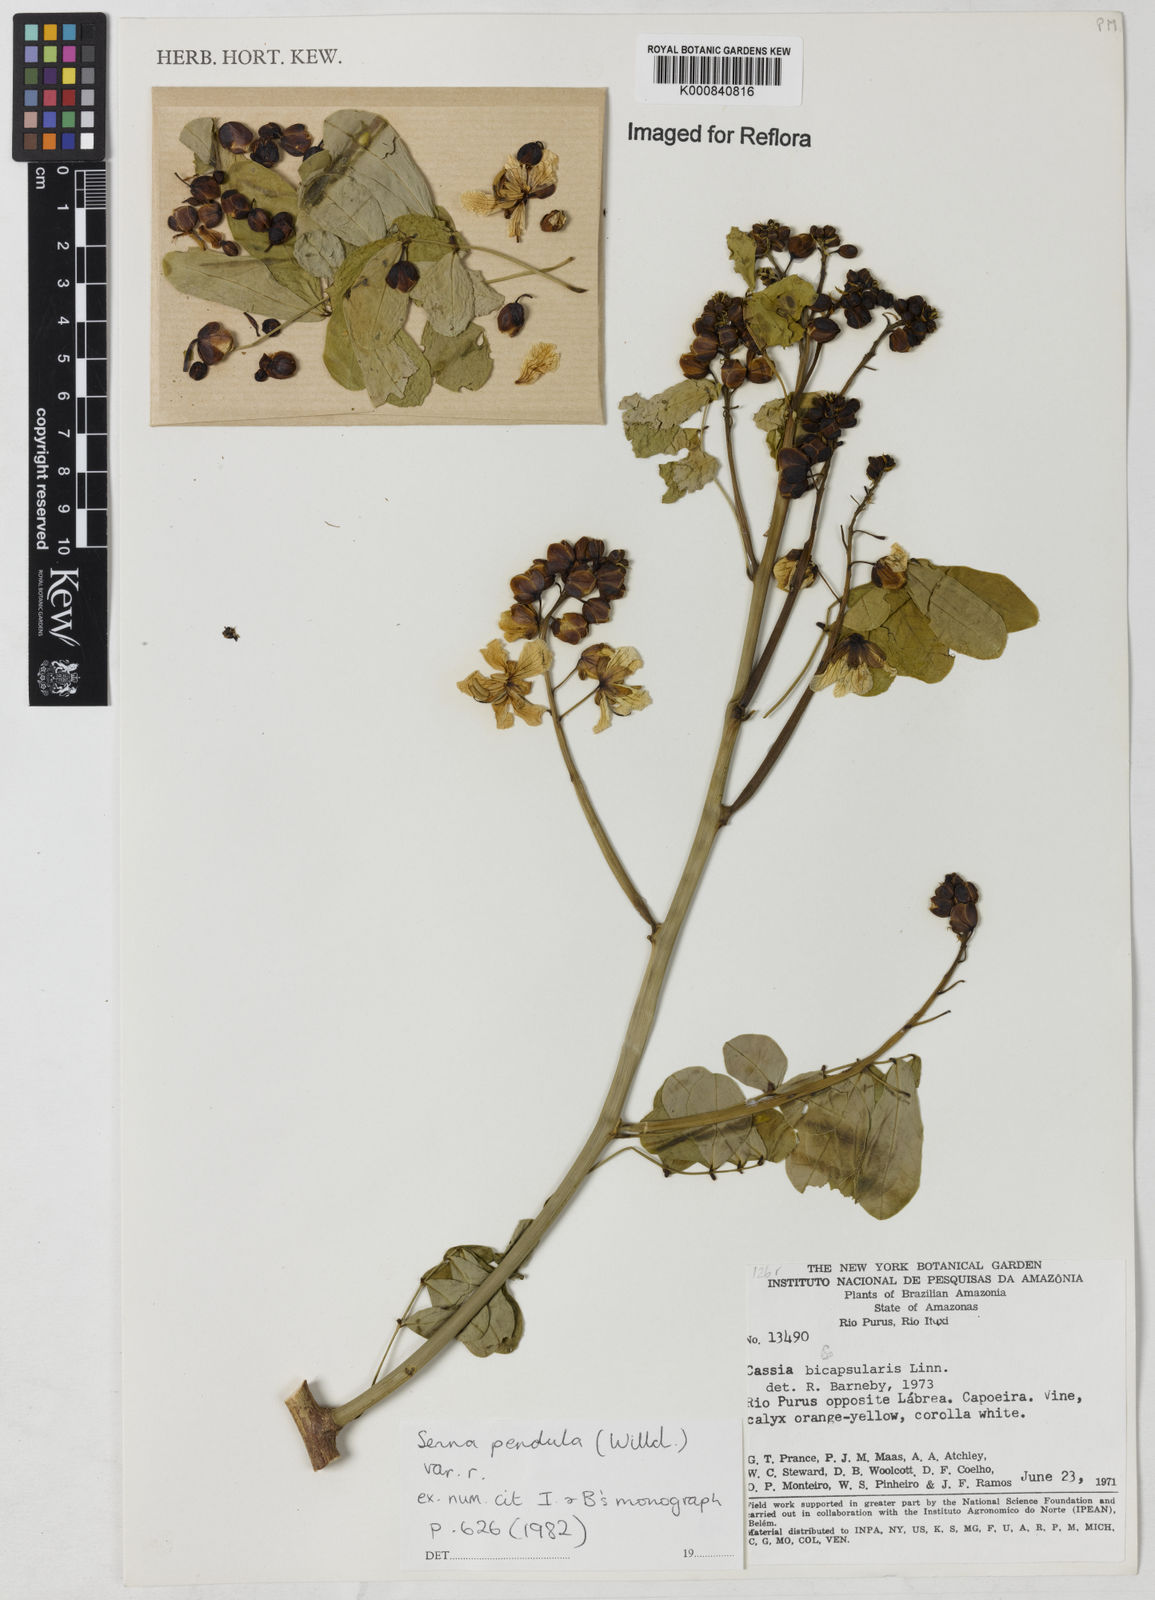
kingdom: Plantae
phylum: Tracheophyta
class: Magnoliopsida
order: Fabales
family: Fabaceae
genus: Senna
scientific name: Senna pendula
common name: Easter cassia
